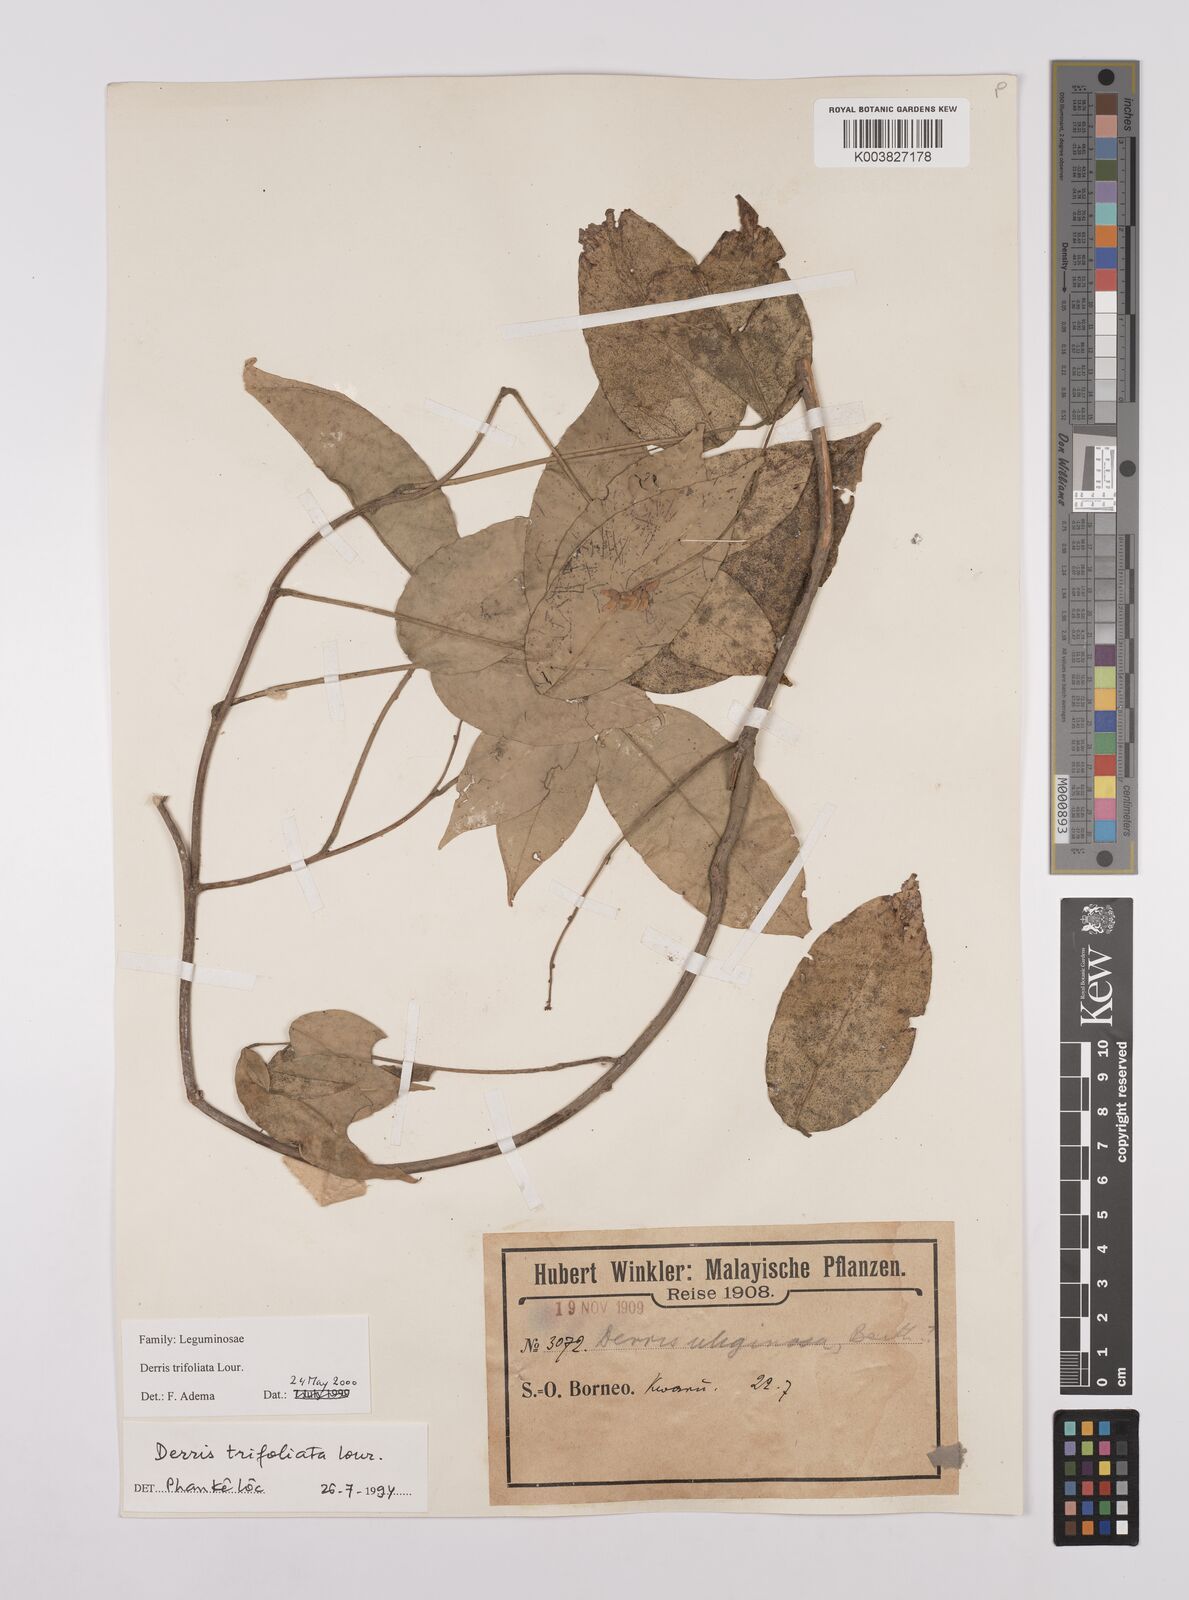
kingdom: Plantae
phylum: Tracheophyta
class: Magnoliopsida
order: Fabales
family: Fabaceae
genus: Derris
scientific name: Derris trifoliata
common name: Three-leaf derris
